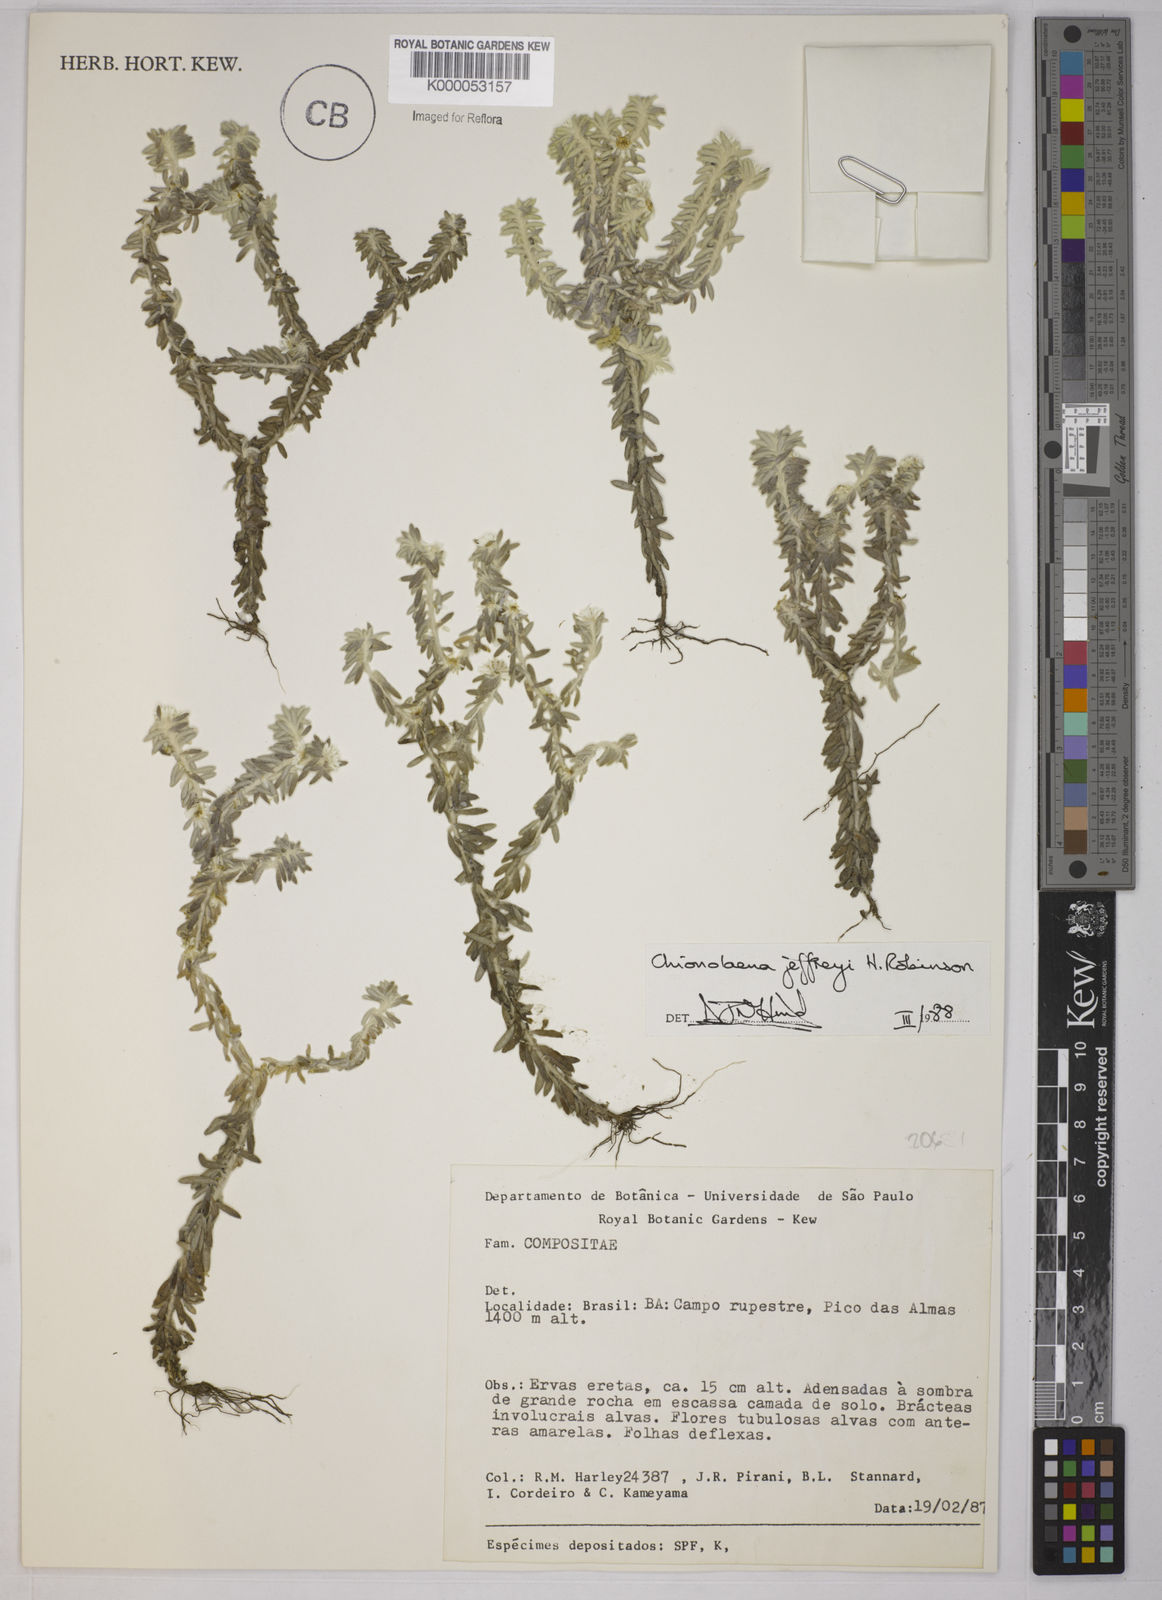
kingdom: Plantae
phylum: Tracheophyta
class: Magnoliopsida
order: Asterales
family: Asteraceae
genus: Chionolaena
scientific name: Chionolaena jeffreyi
